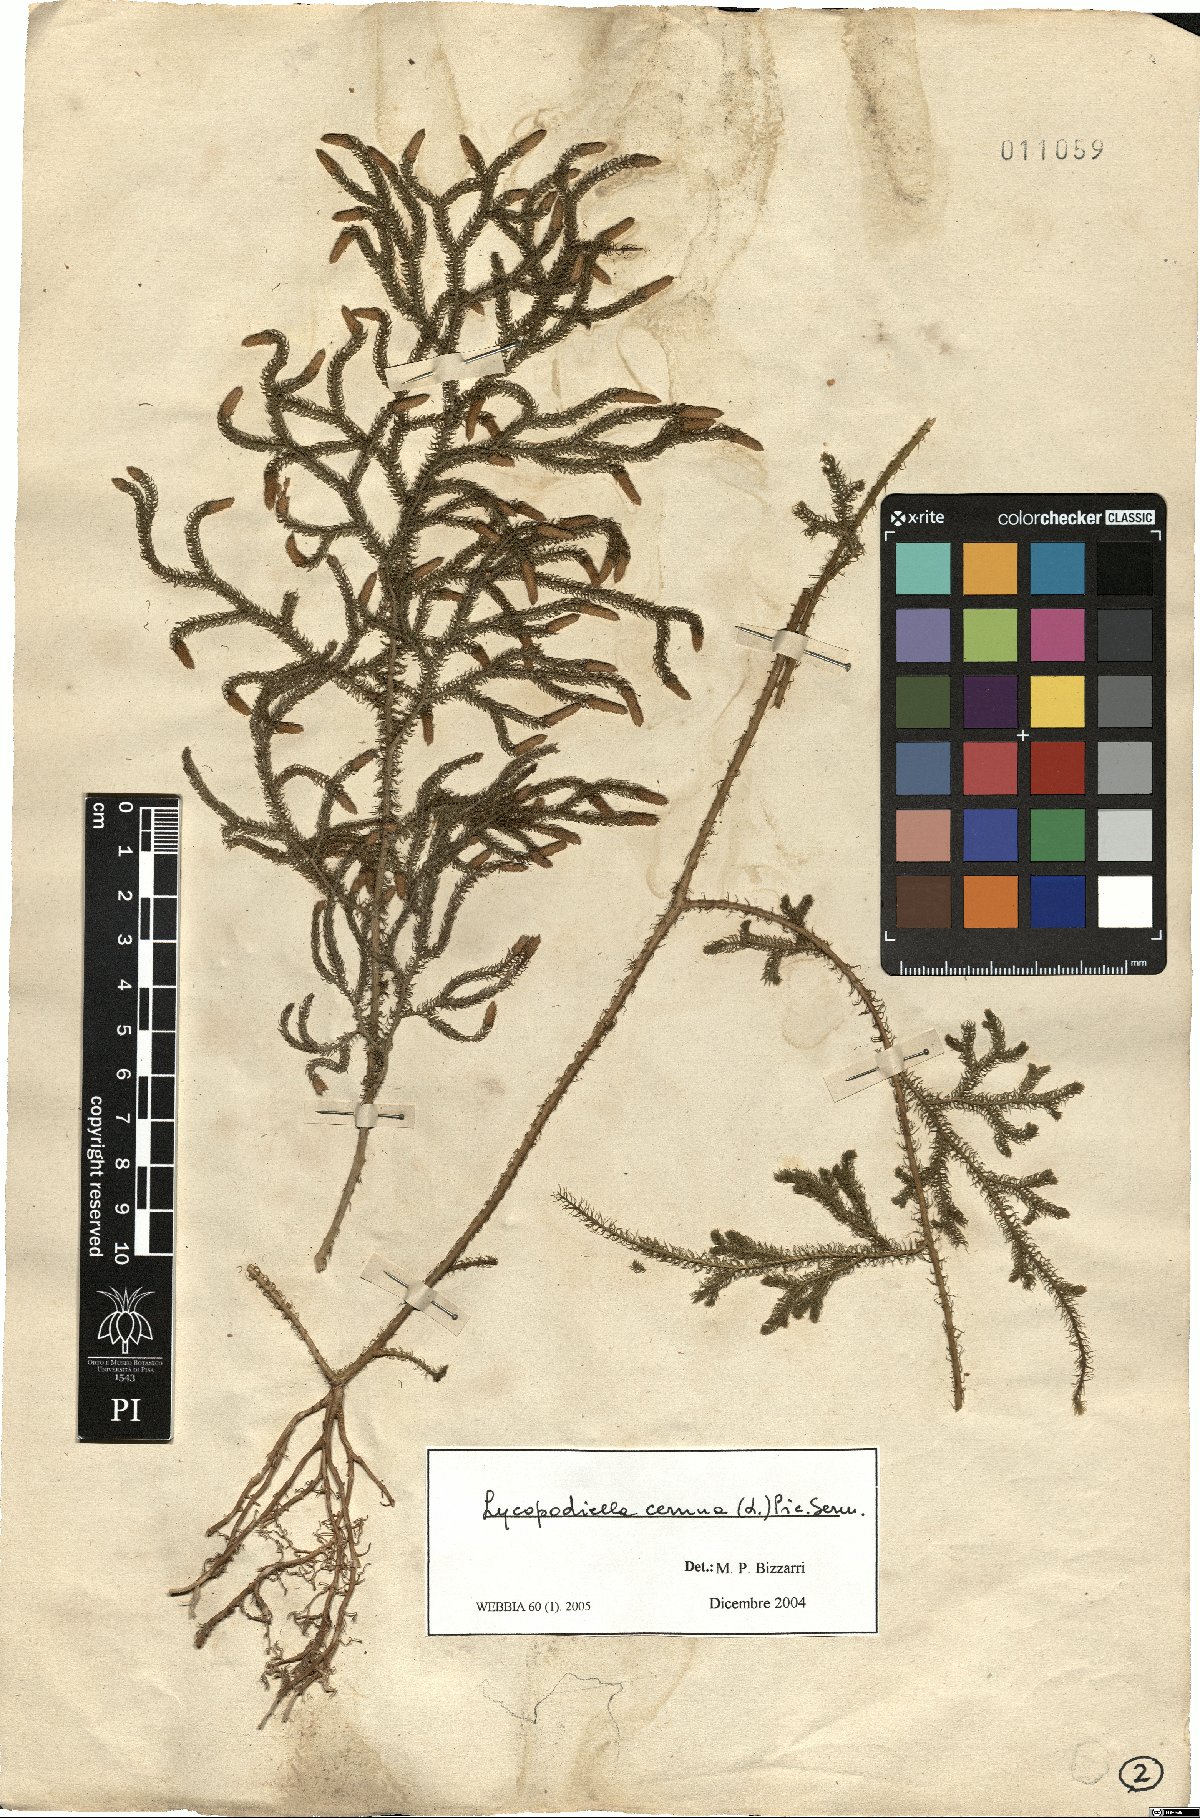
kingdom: Plantae
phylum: Tracheophyta
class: Lycopodiopsida
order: Lycopodiales
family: Lycopodiaceae
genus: Palhinhaea
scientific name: Palhinhaea cernua
